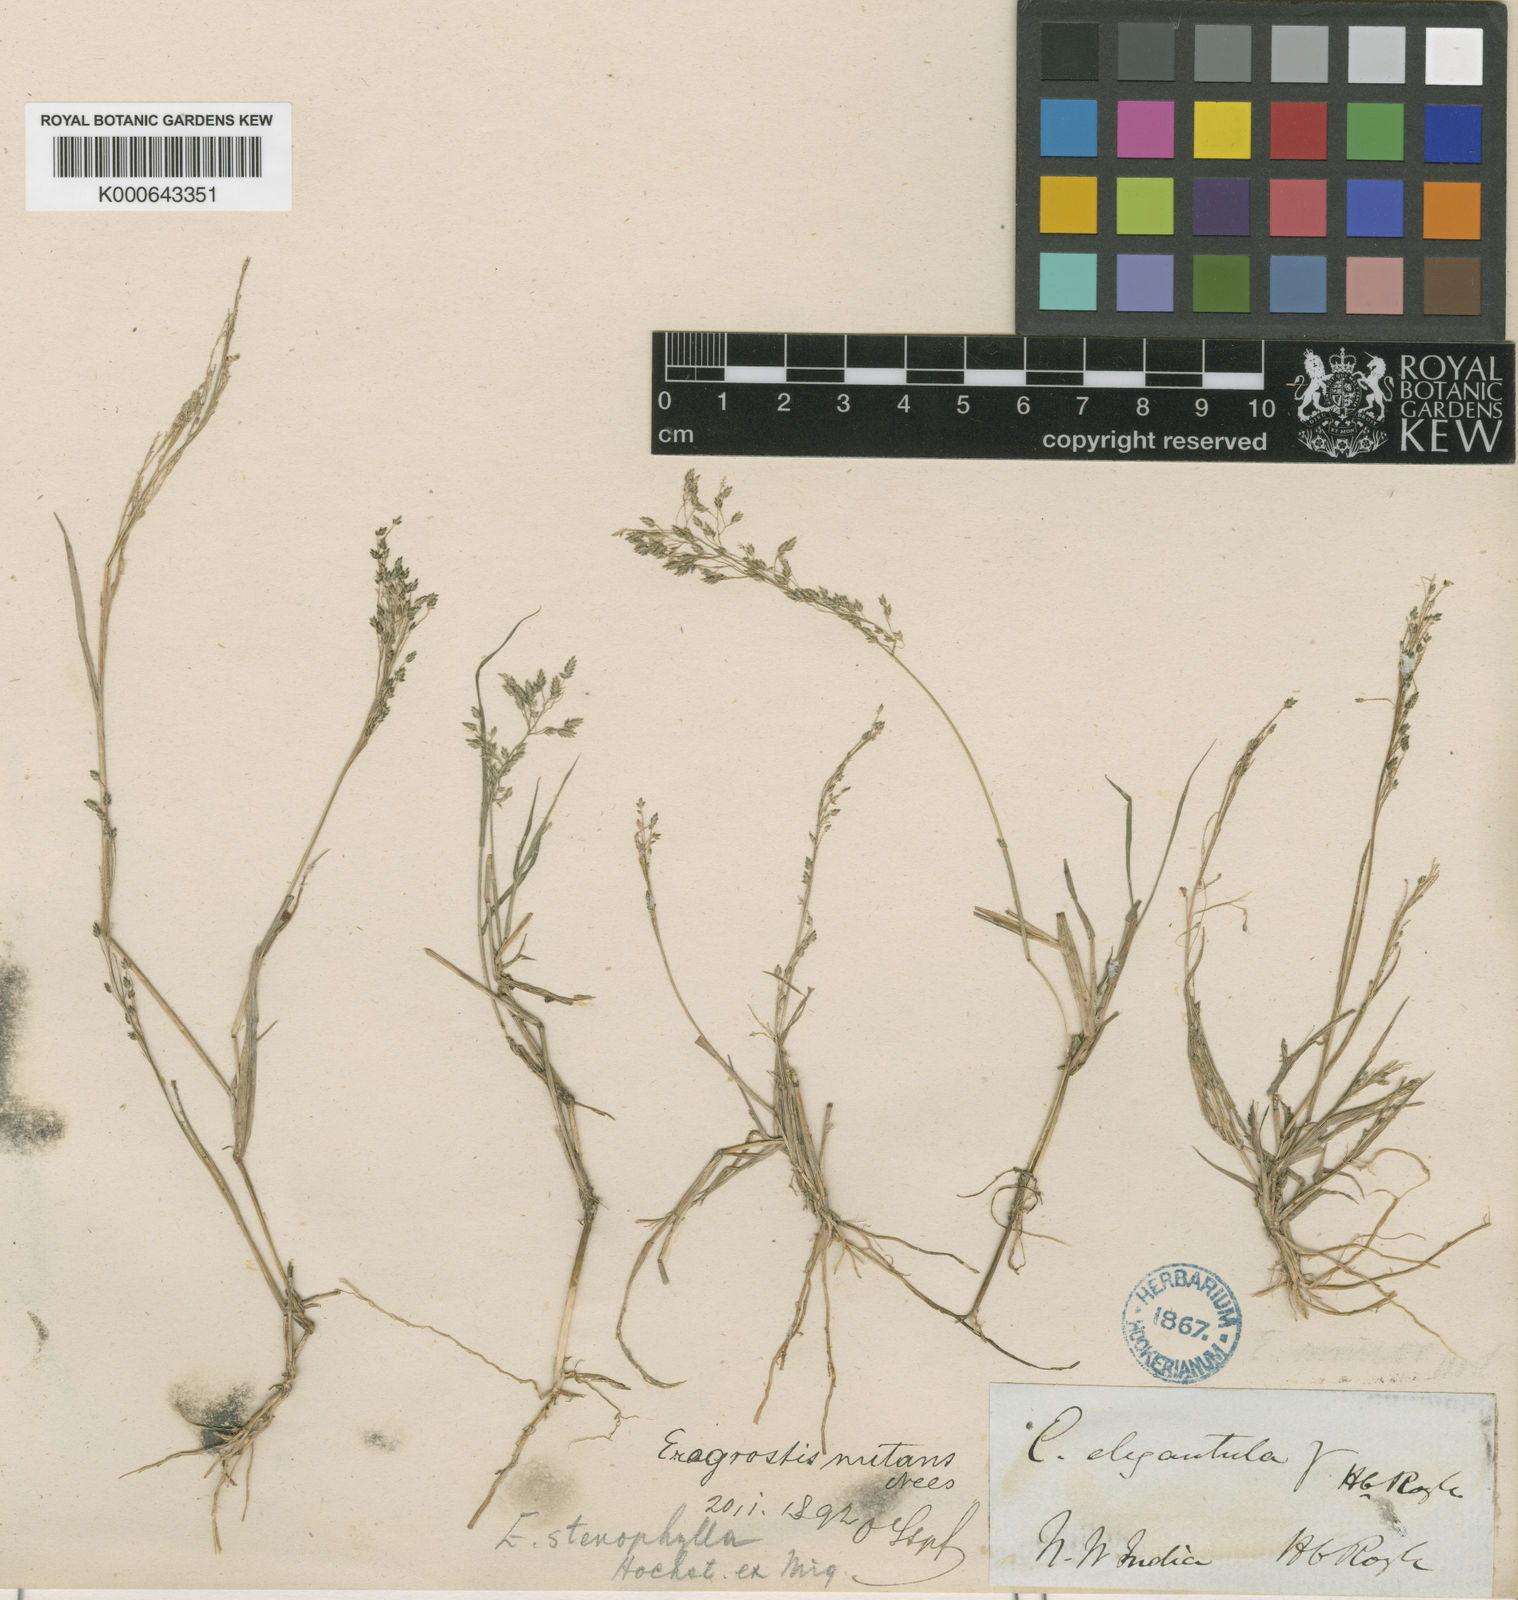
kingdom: Plantae
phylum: Tracheophyta
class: Liliopsida
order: Poales
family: Poaceae
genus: Eragrostis
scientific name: Eragrostis nutans
